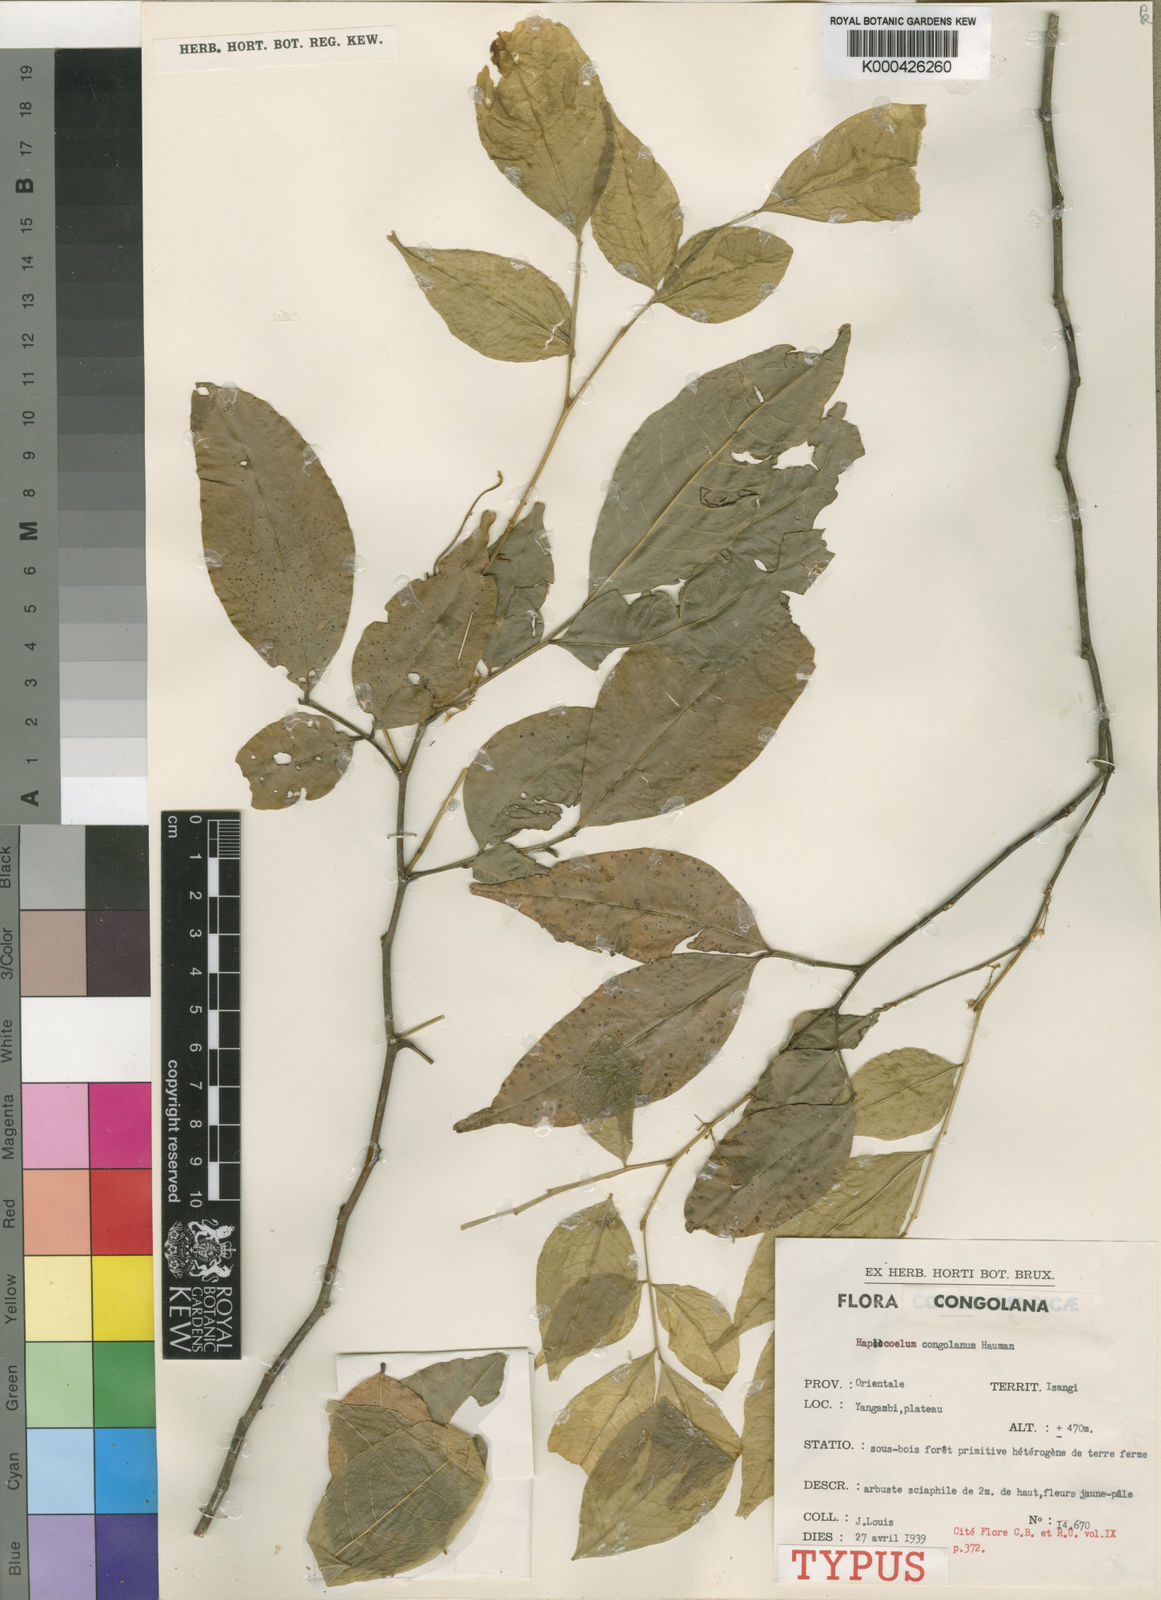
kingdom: Plantae
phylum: Tracheophyta
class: Magnoliopsida
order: Sapindales
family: Sapindaceae
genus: Haplocoelum
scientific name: Haplocoelum acuminatum
